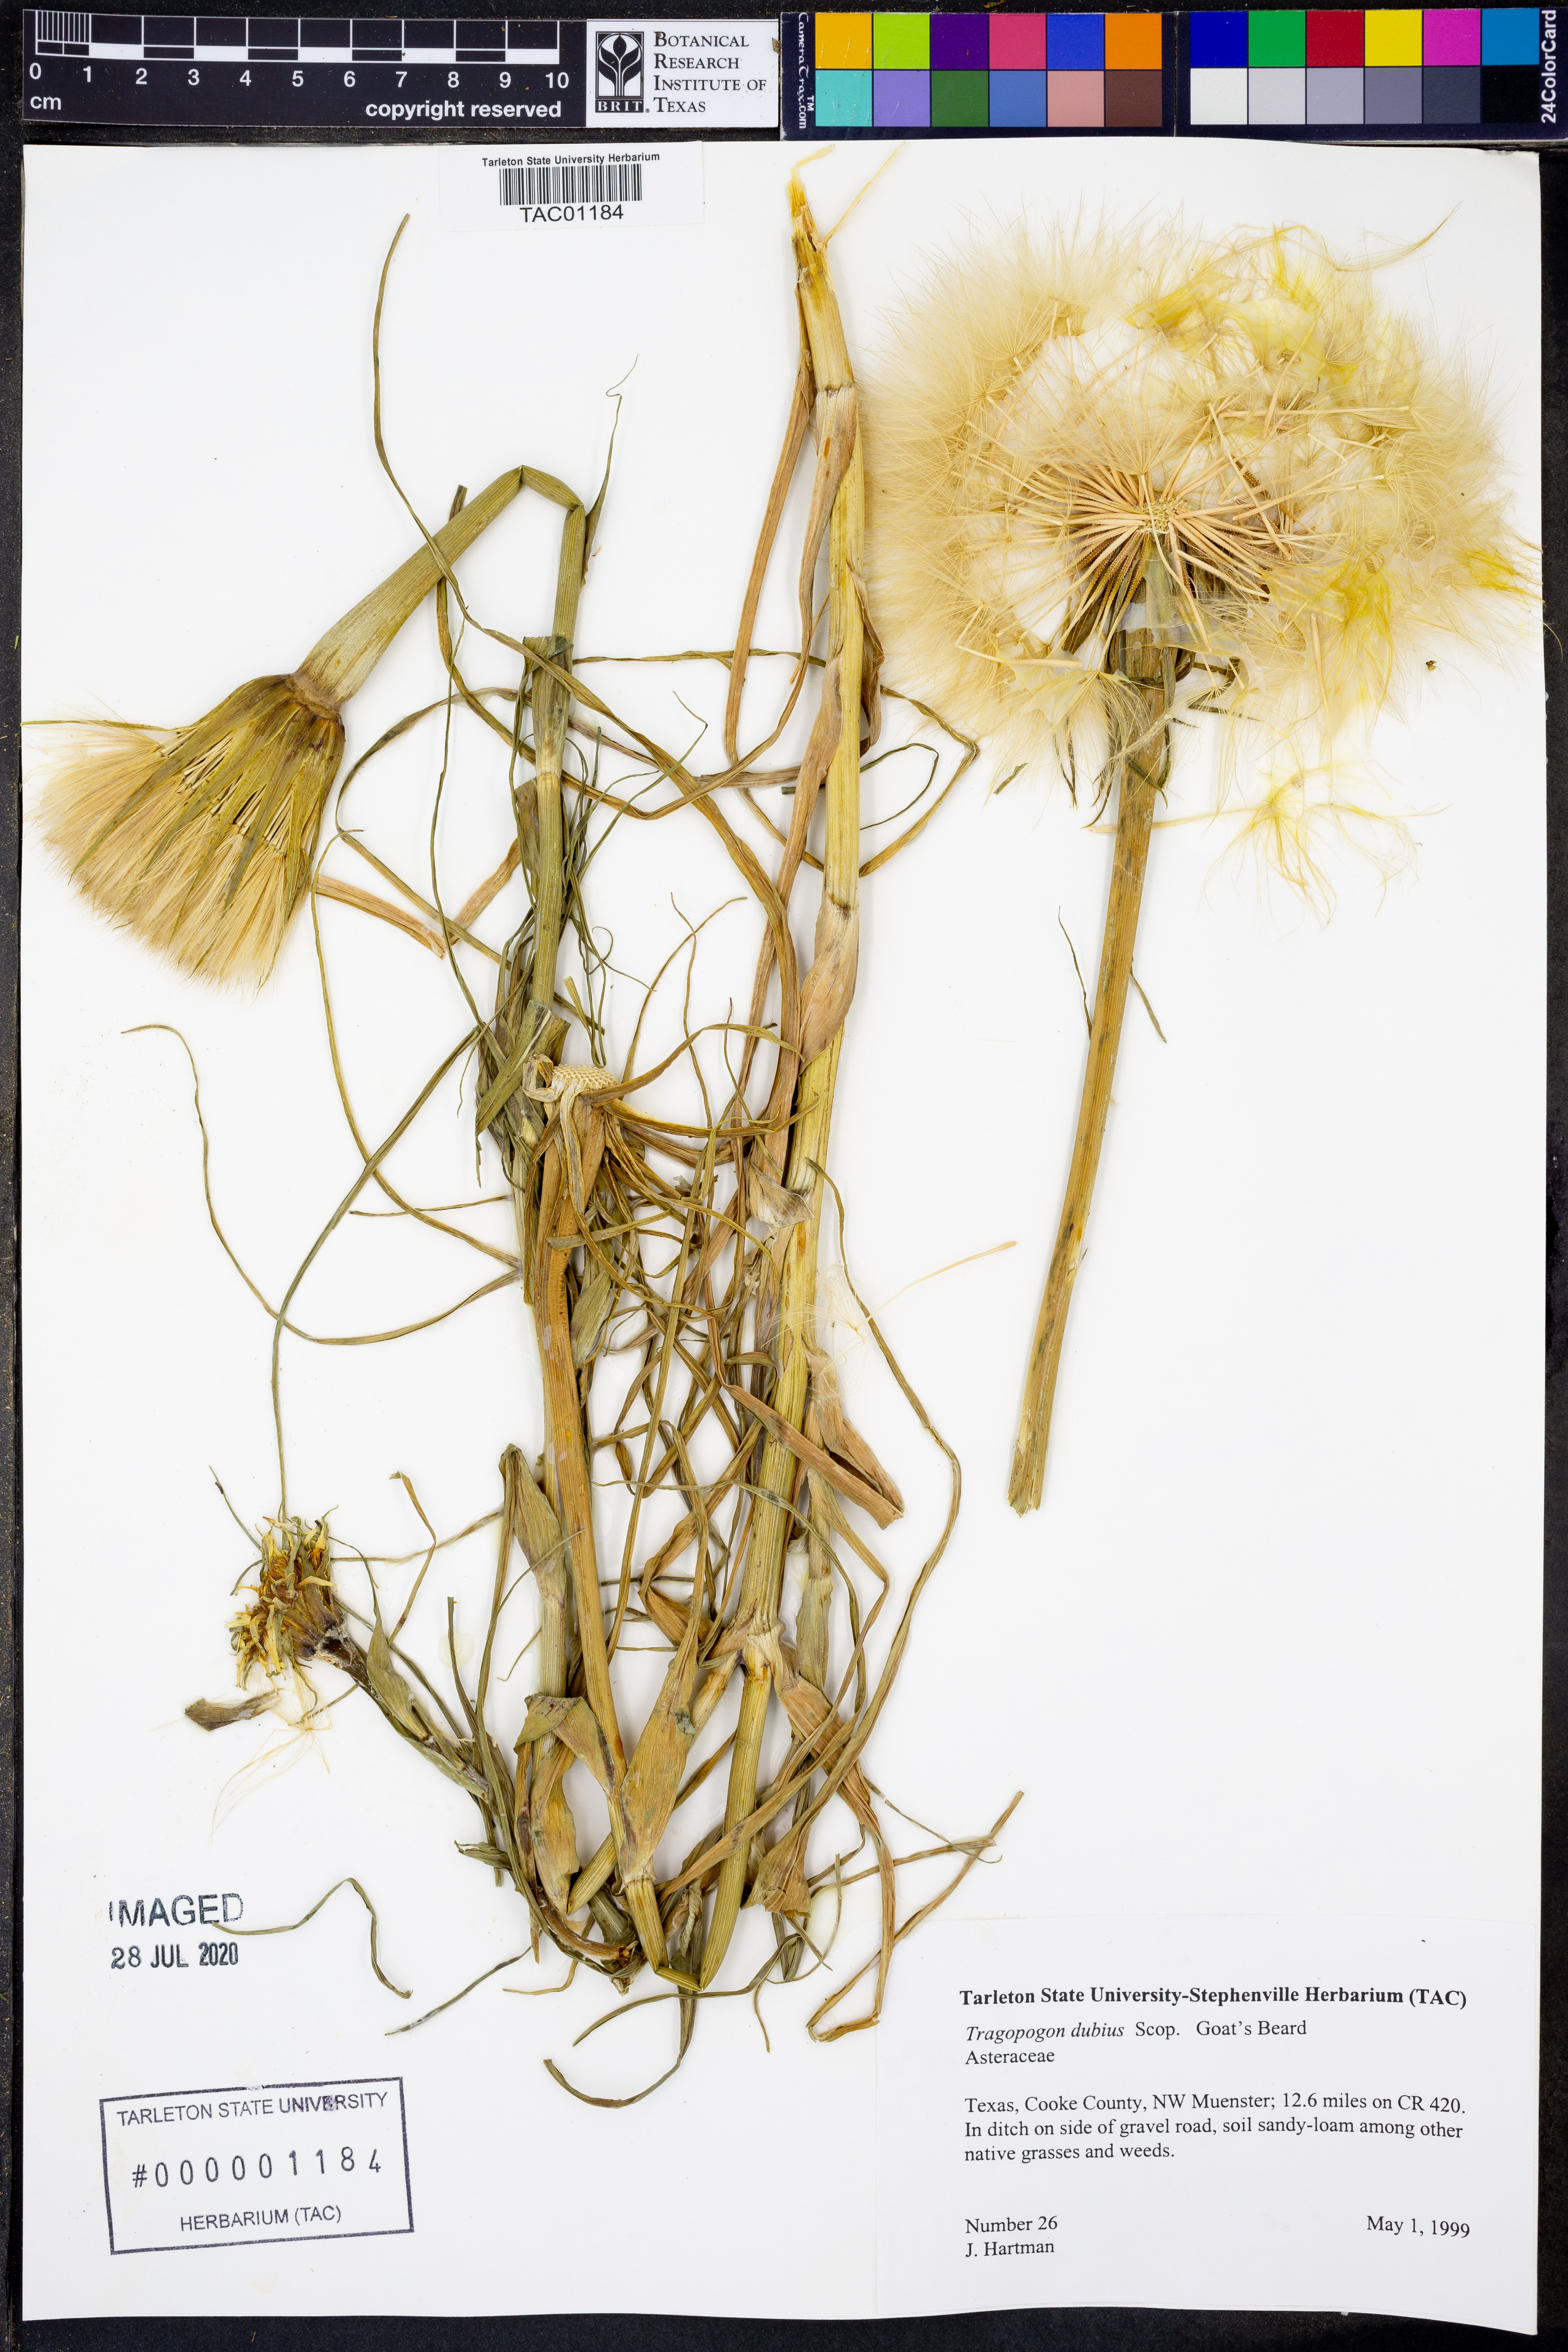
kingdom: Plantae
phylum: Tracheophyta
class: Magnoliopsida
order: Asterales
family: Asteraceae
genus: Tragopogon
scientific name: Tragopogon dubius
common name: Yellow salsify
